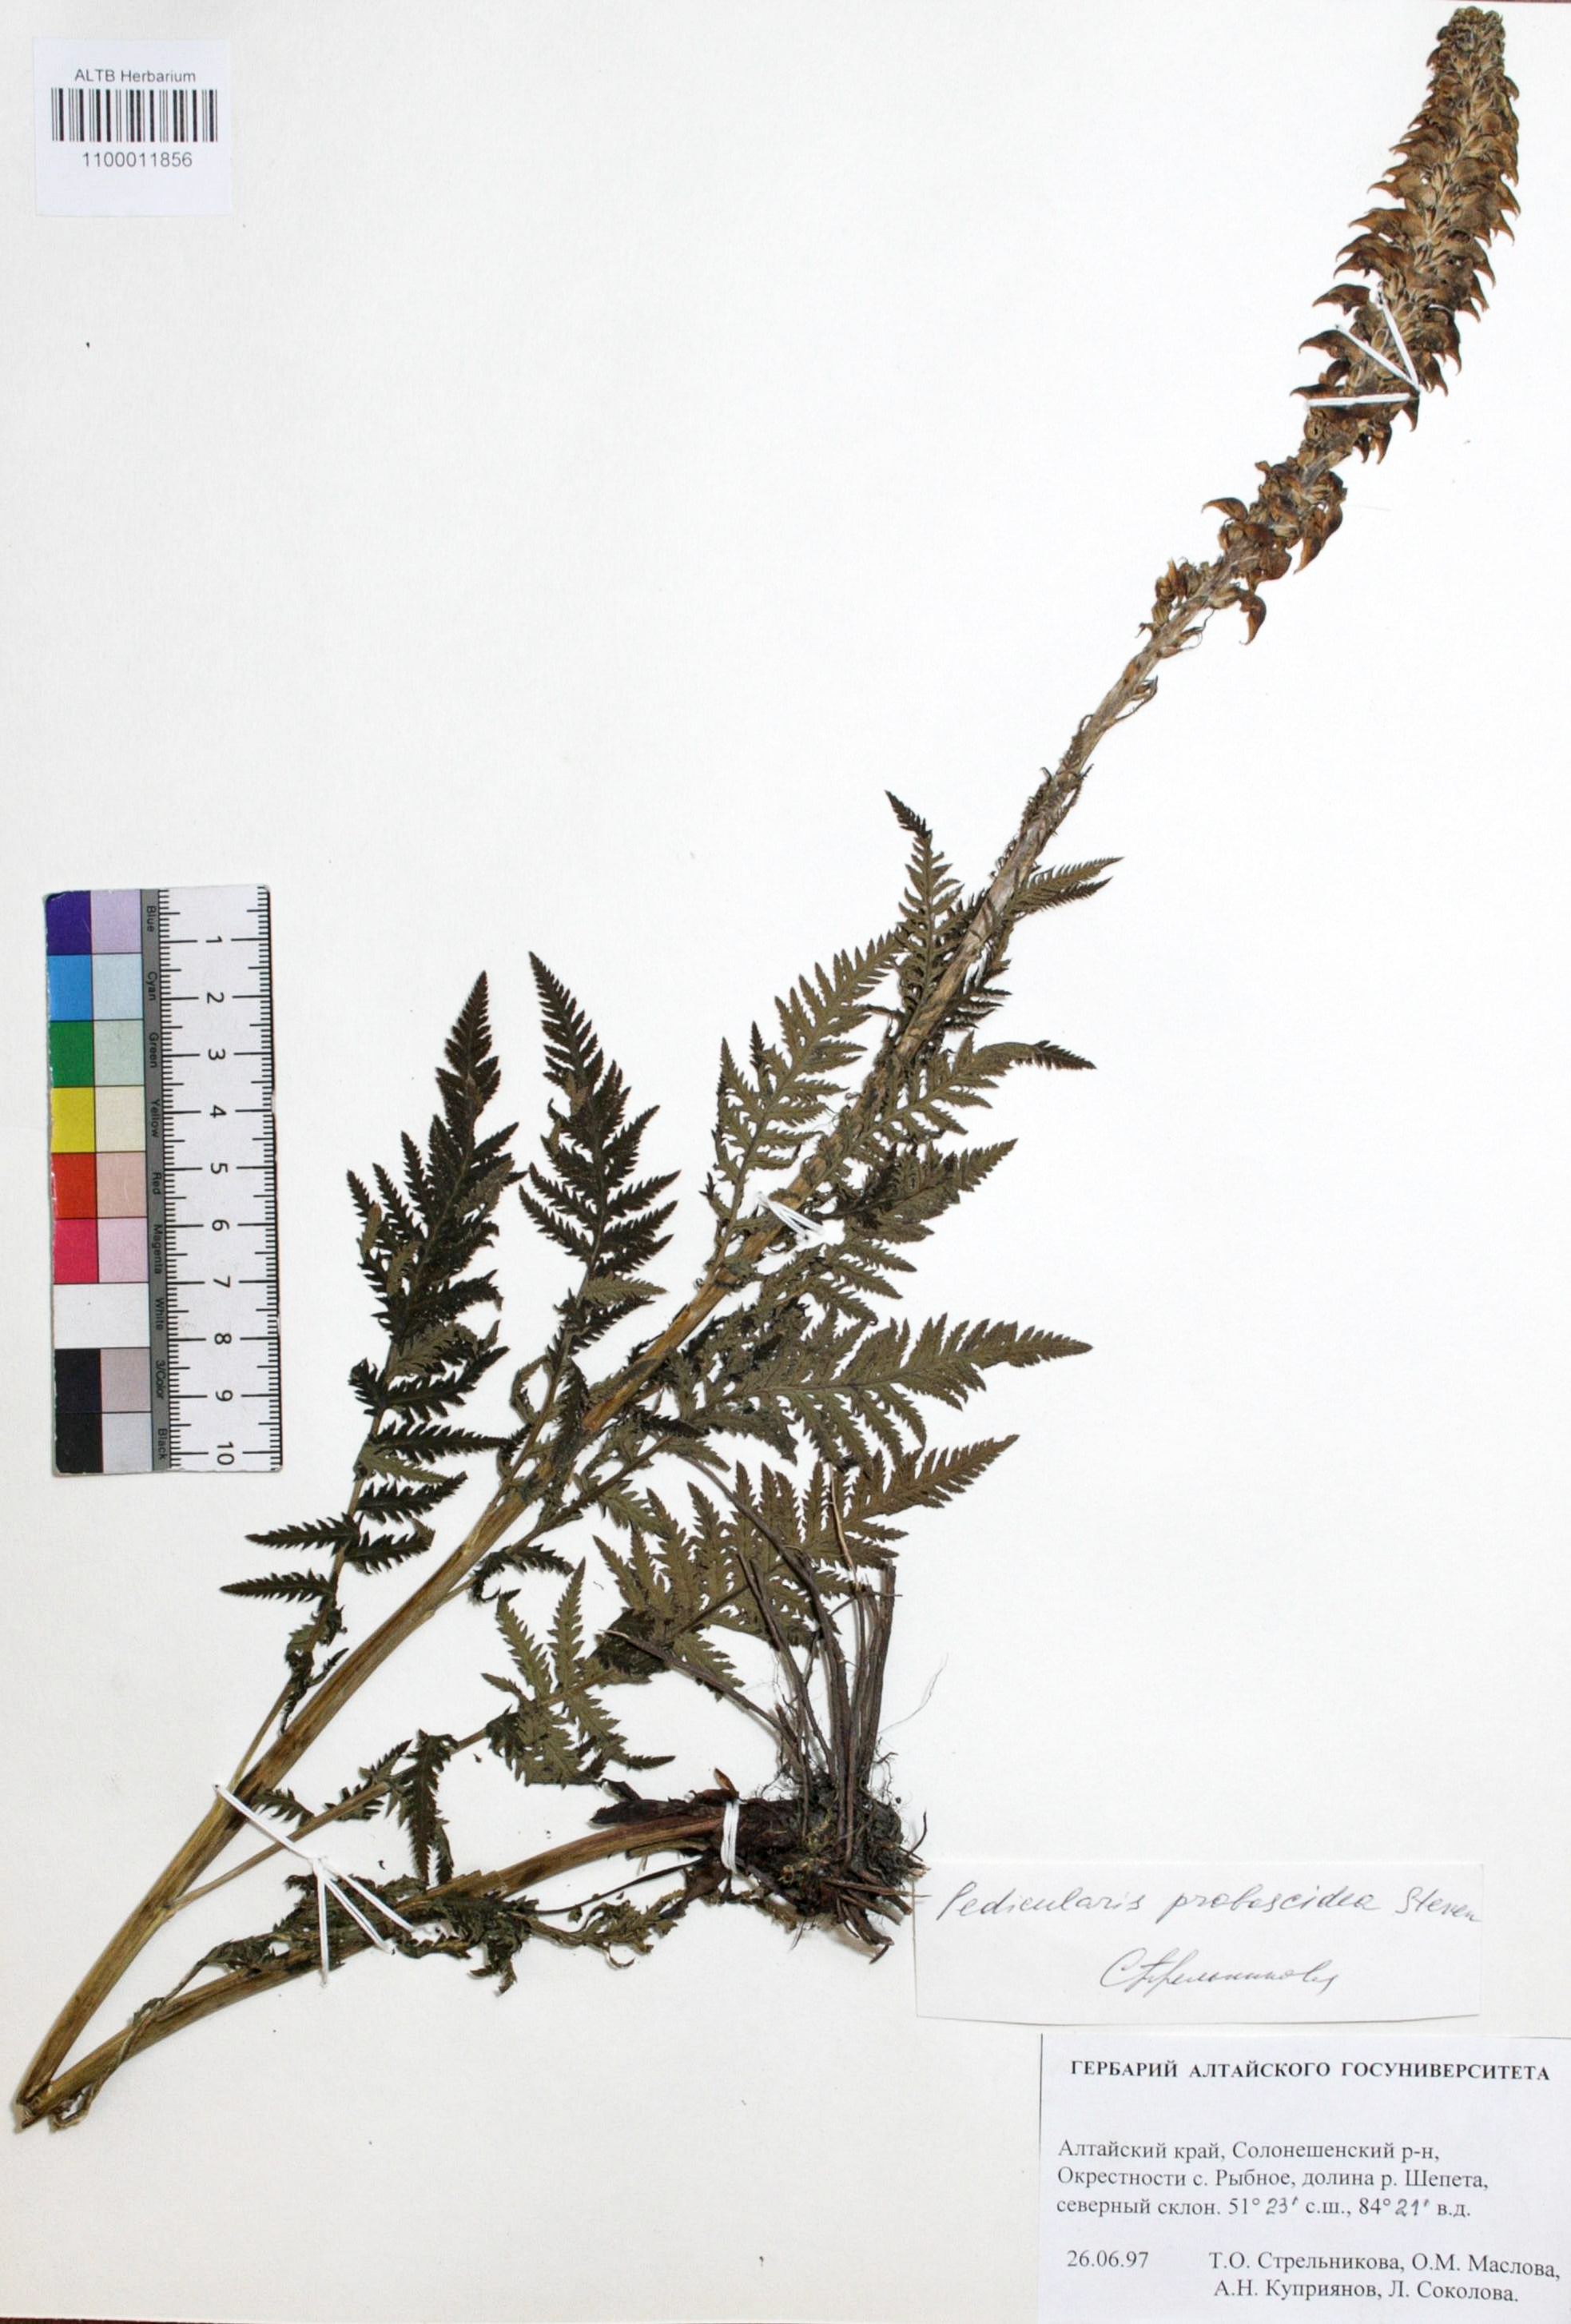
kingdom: Plantae
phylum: Tracheophyta
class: Magnoliopsida
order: Lamiales
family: Orobanchaceae
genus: Pedicularis
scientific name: Pedicularis proboscidea
